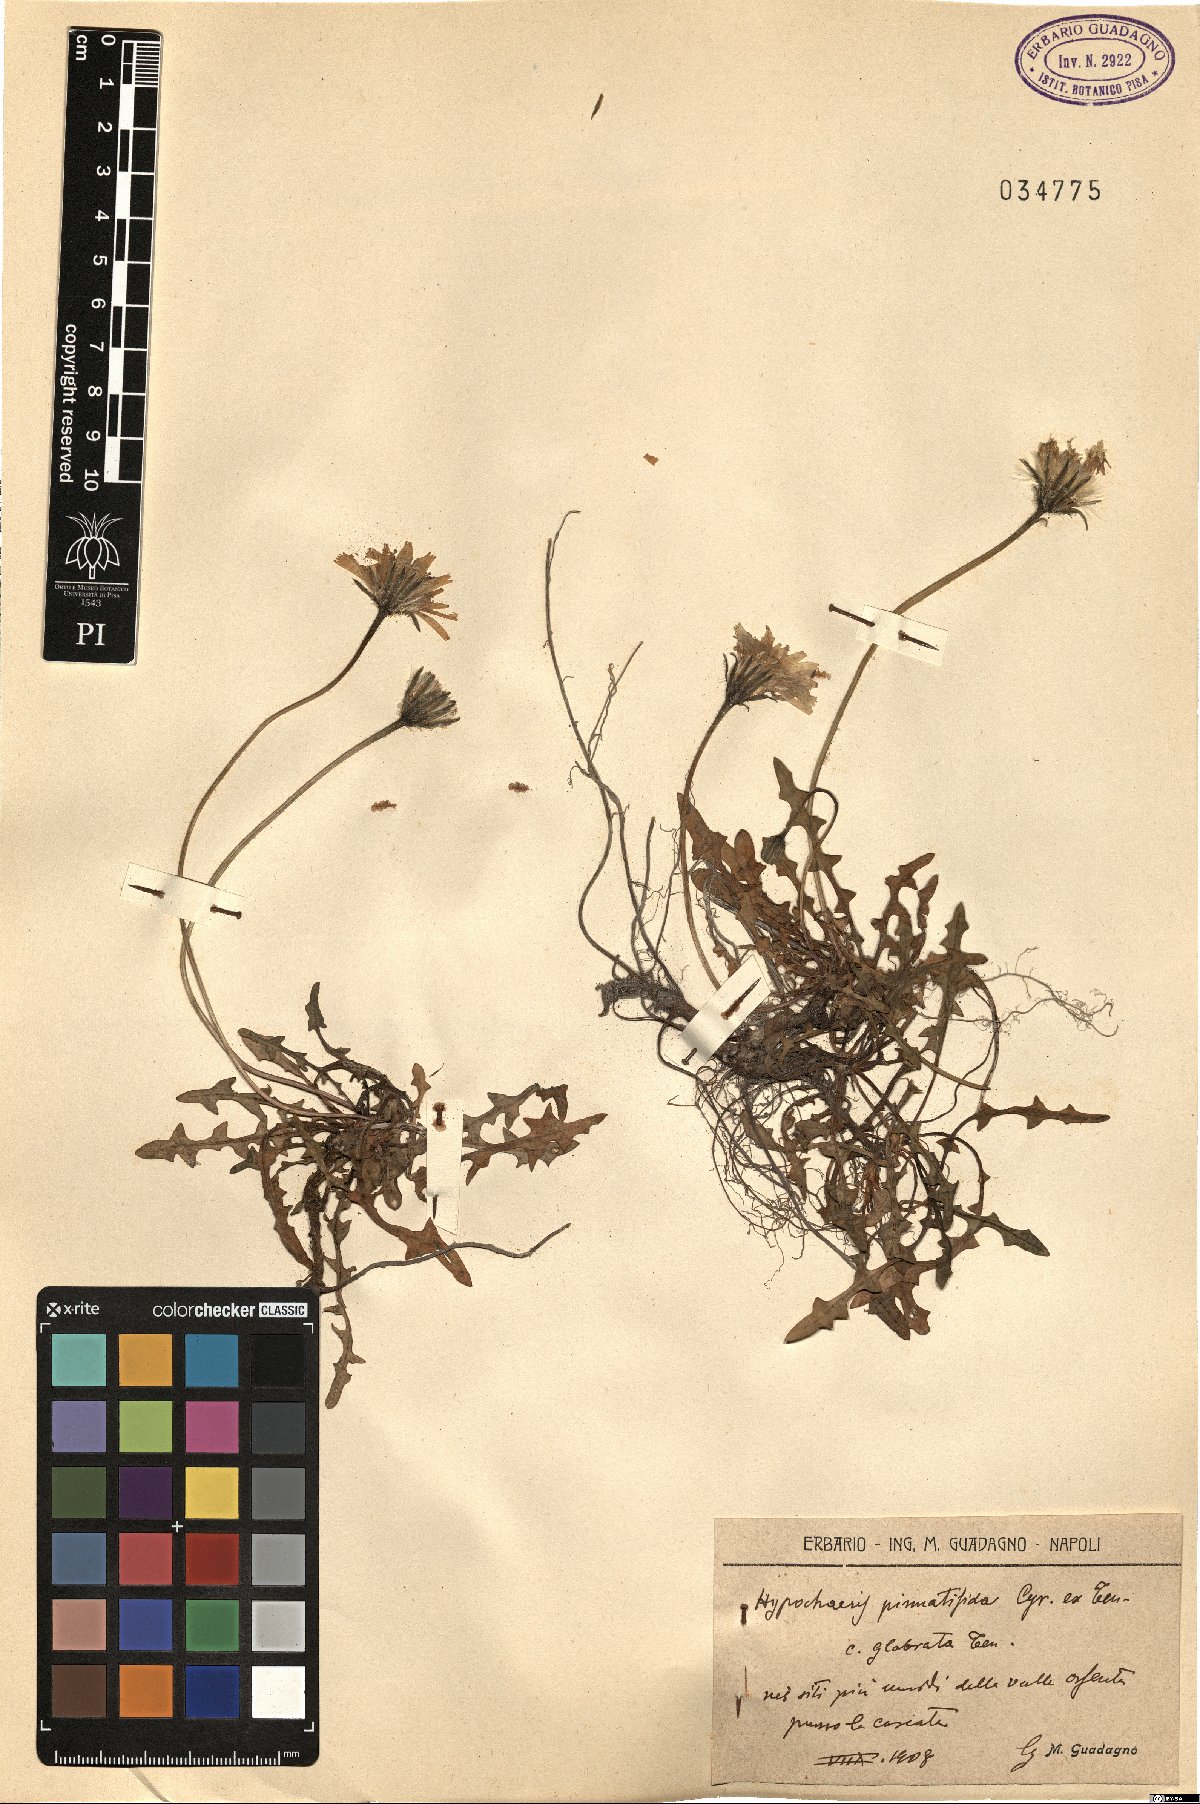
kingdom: Plantae
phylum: Tracheophyta
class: Magnoliopsida
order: Asterales
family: Asteraceae
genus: Hypochaeris
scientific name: Hypochaeris cretensis
